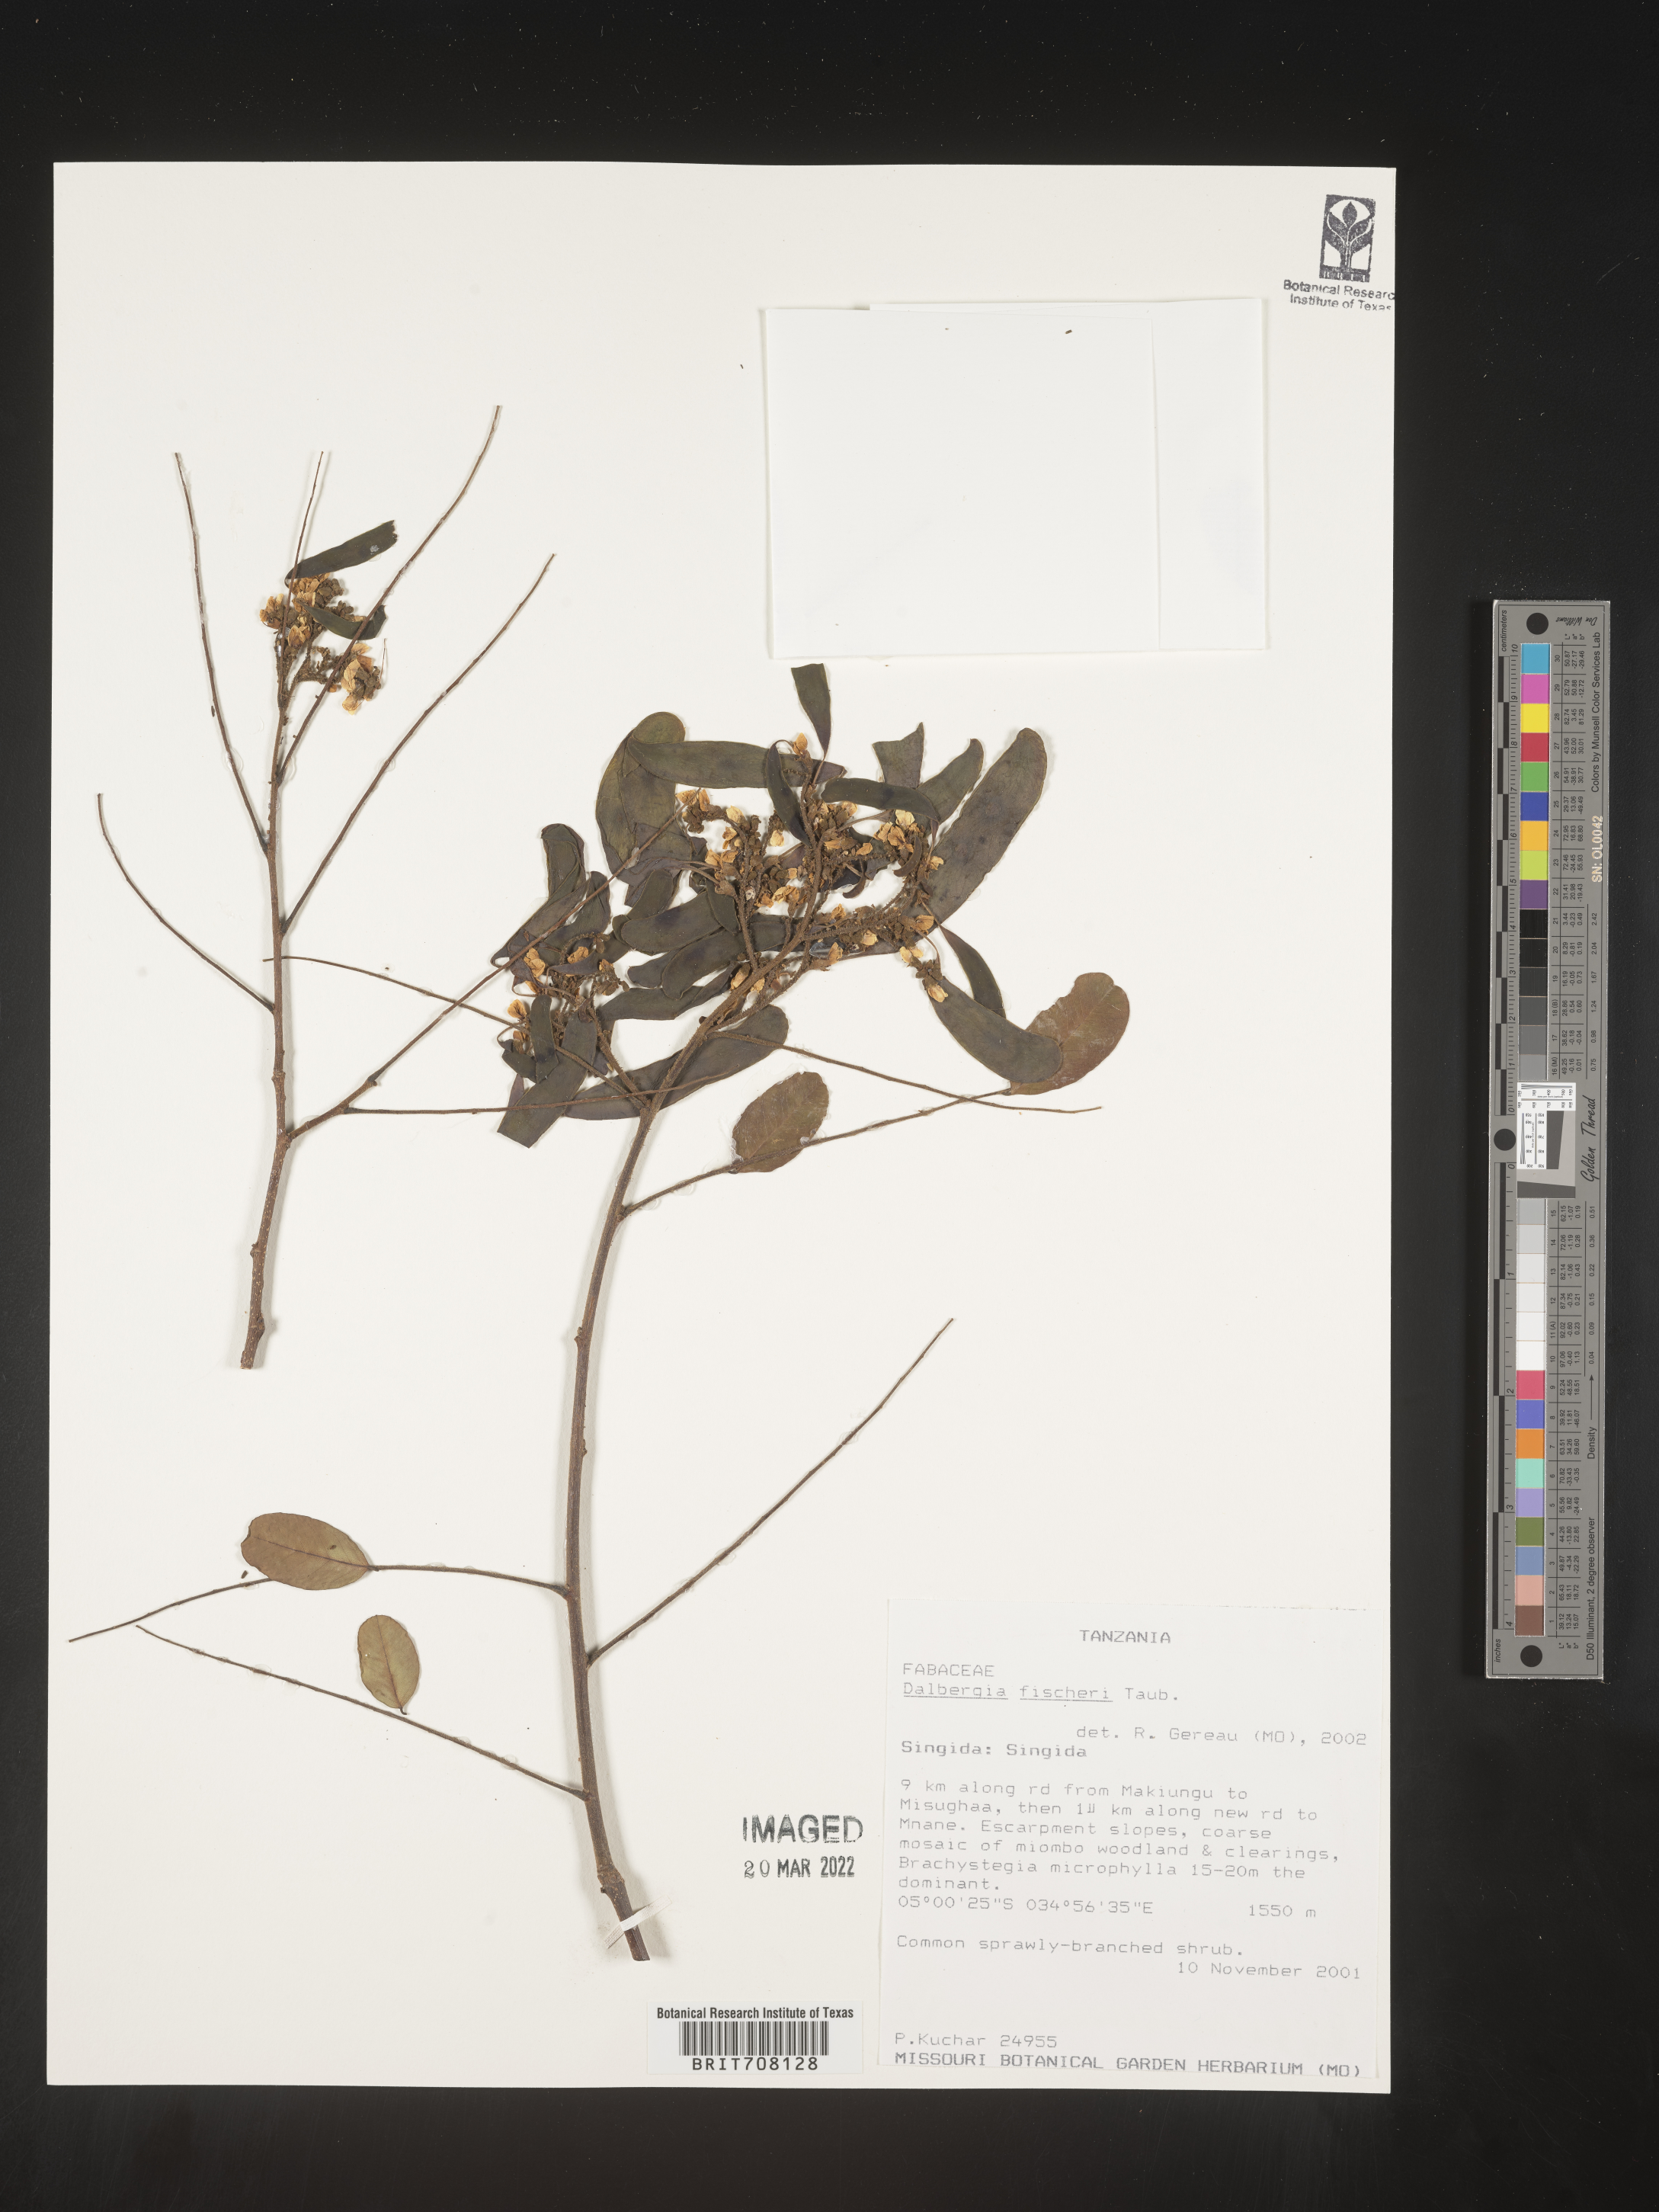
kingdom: Plantae
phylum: Tracheophyta
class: Magnoliopsida
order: Fabales
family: Fabaceae
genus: Dalbergia
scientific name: Dalbergia
